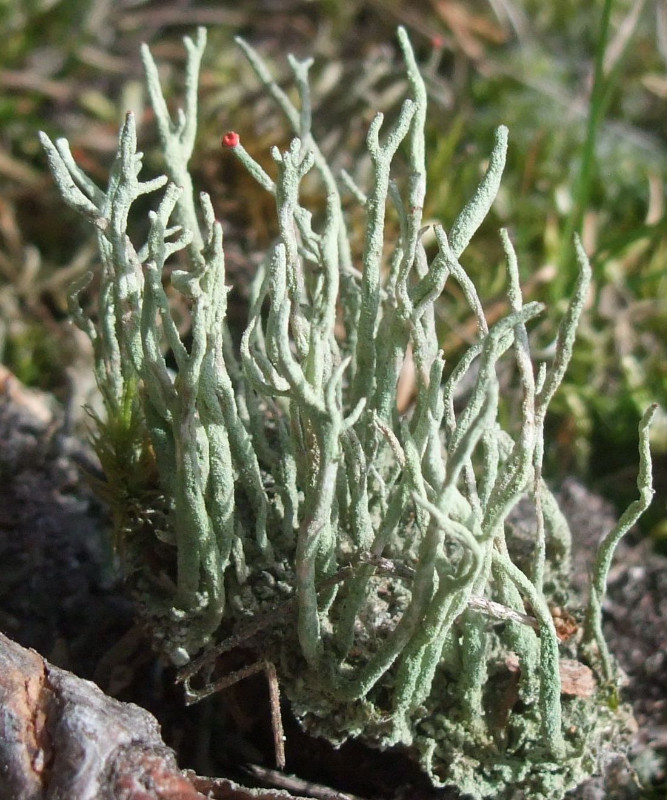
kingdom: Fungi
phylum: Ascomycota
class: Lecanoromycetes
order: Lecanorales
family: Cladoniaceae
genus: Cladonia
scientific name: Cladonia macilenta
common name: indsvunden bægerlav
